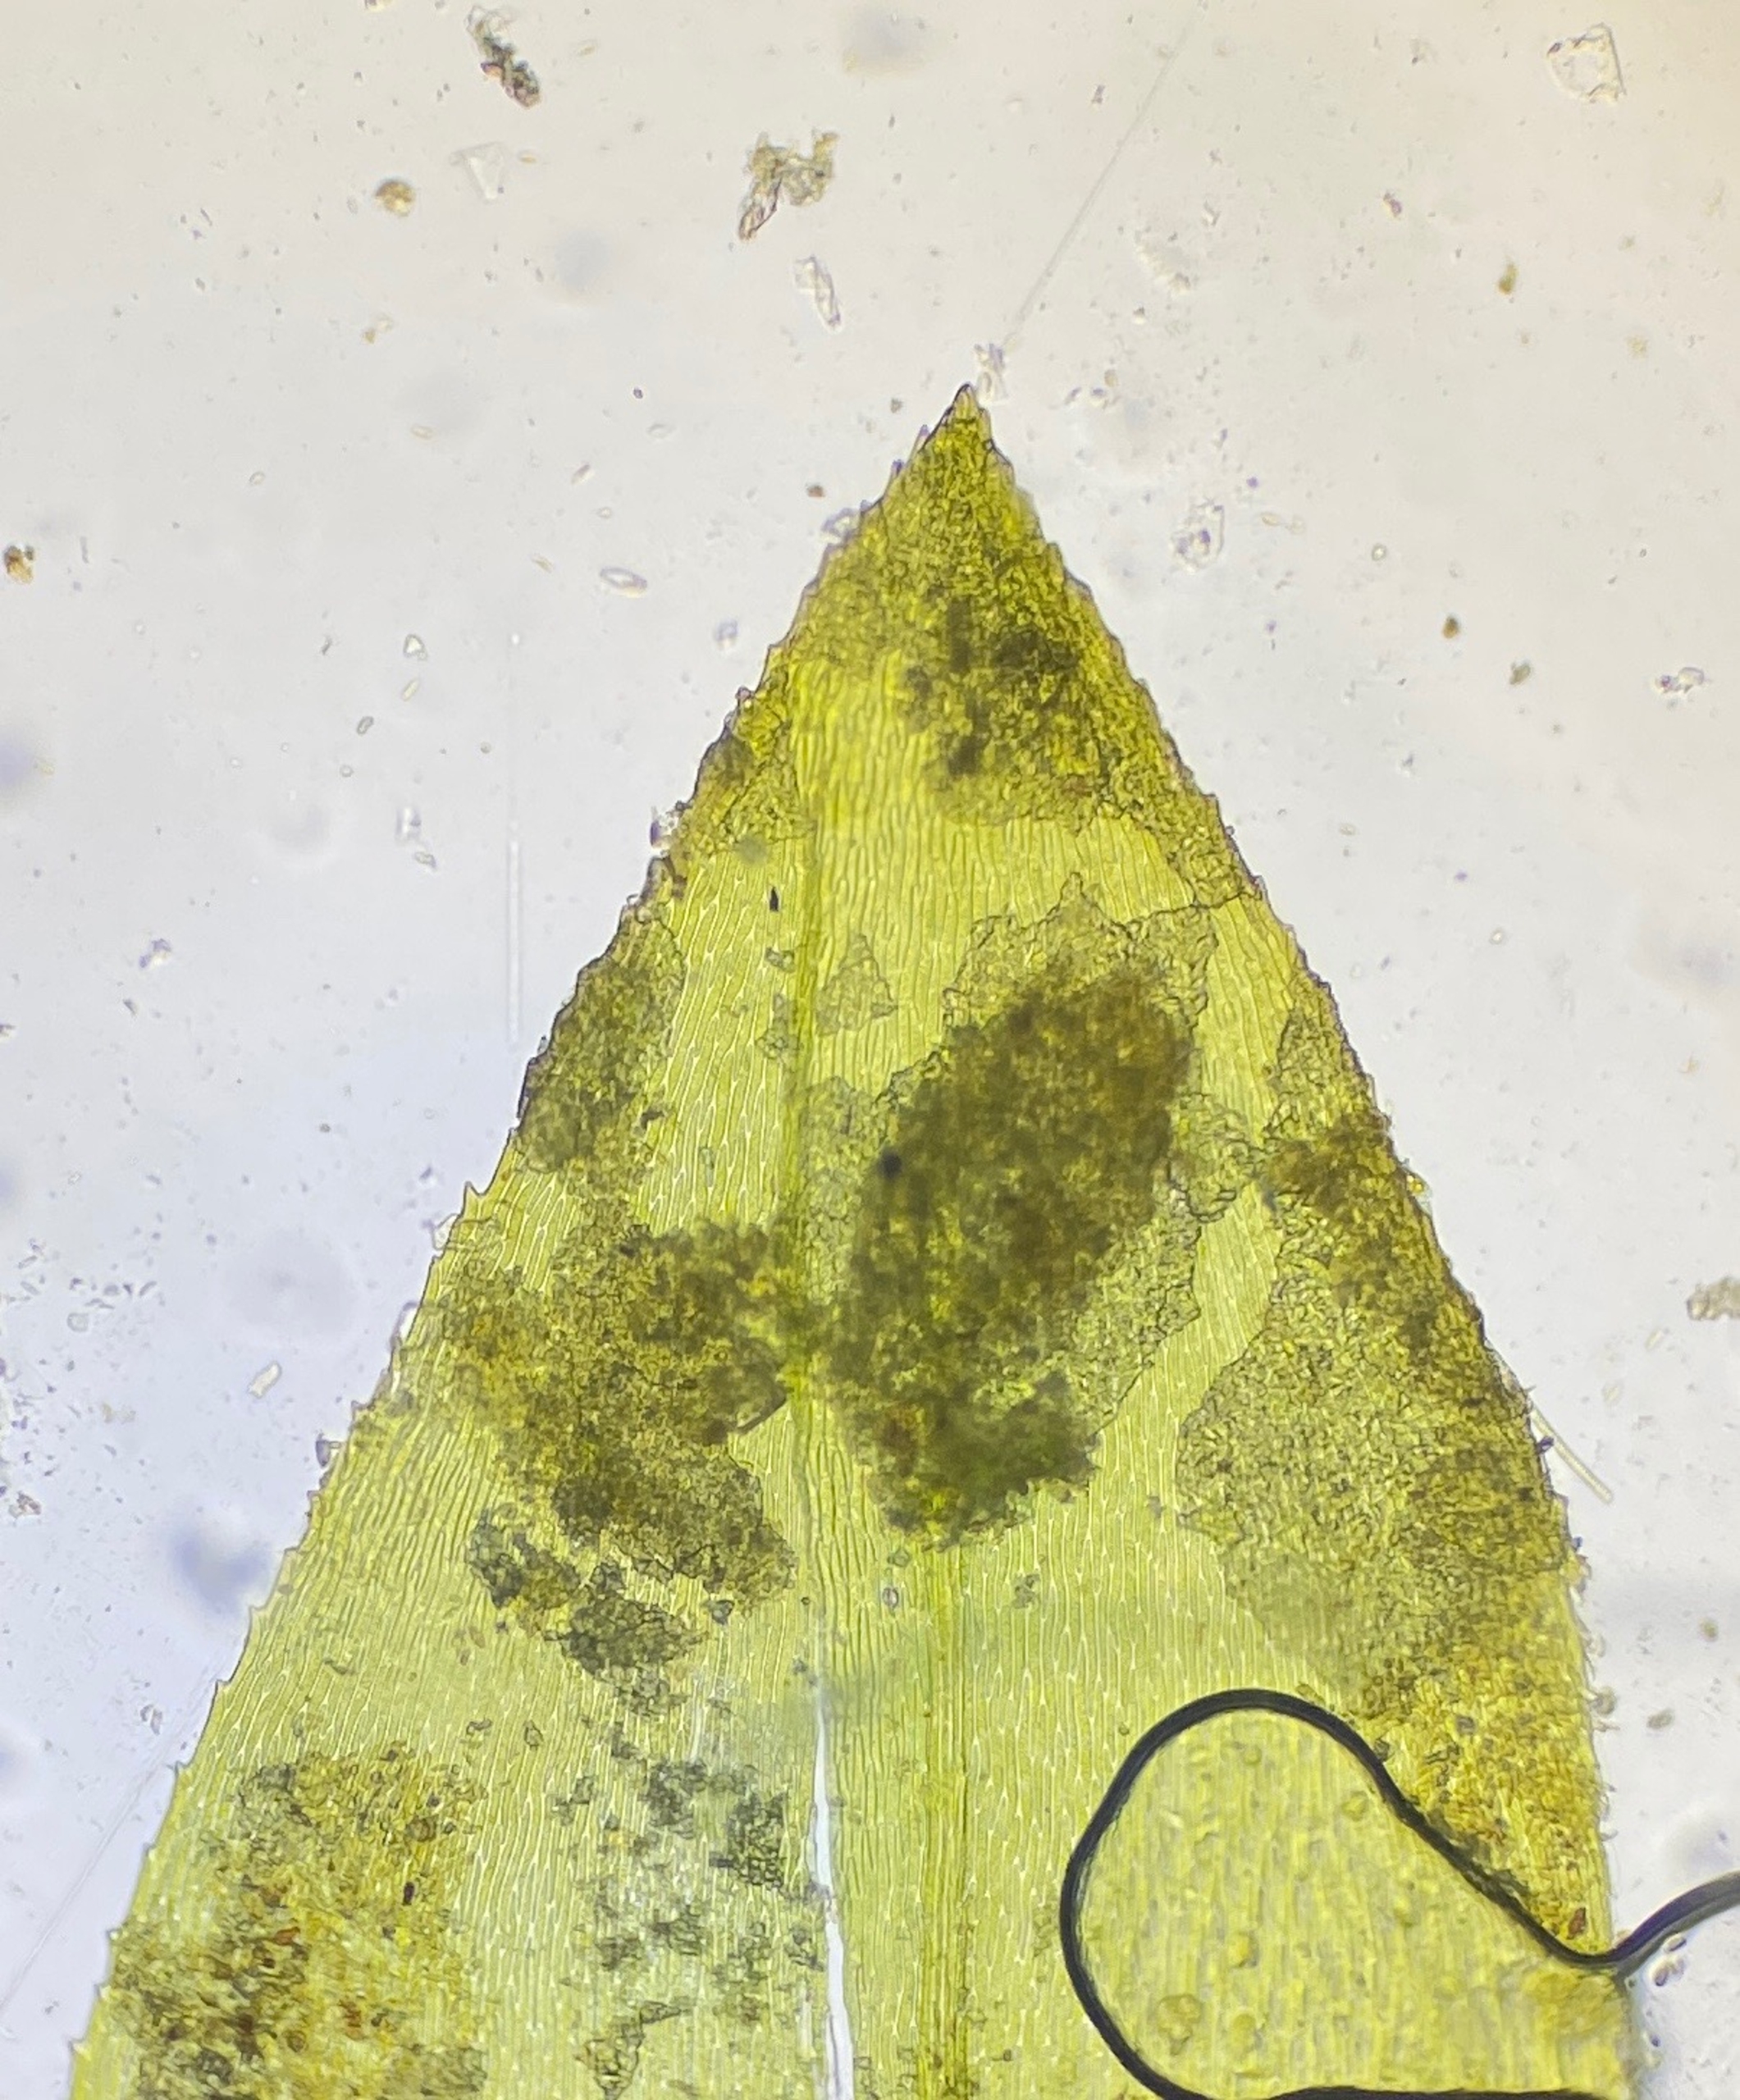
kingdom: Plantae
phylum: Bryophyta
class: Bryopsida
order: Hypnales
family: Brachytheciaceae
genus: Rhynchostegium
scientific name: Rhynchostegium riparioides
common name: Robust strømmos
